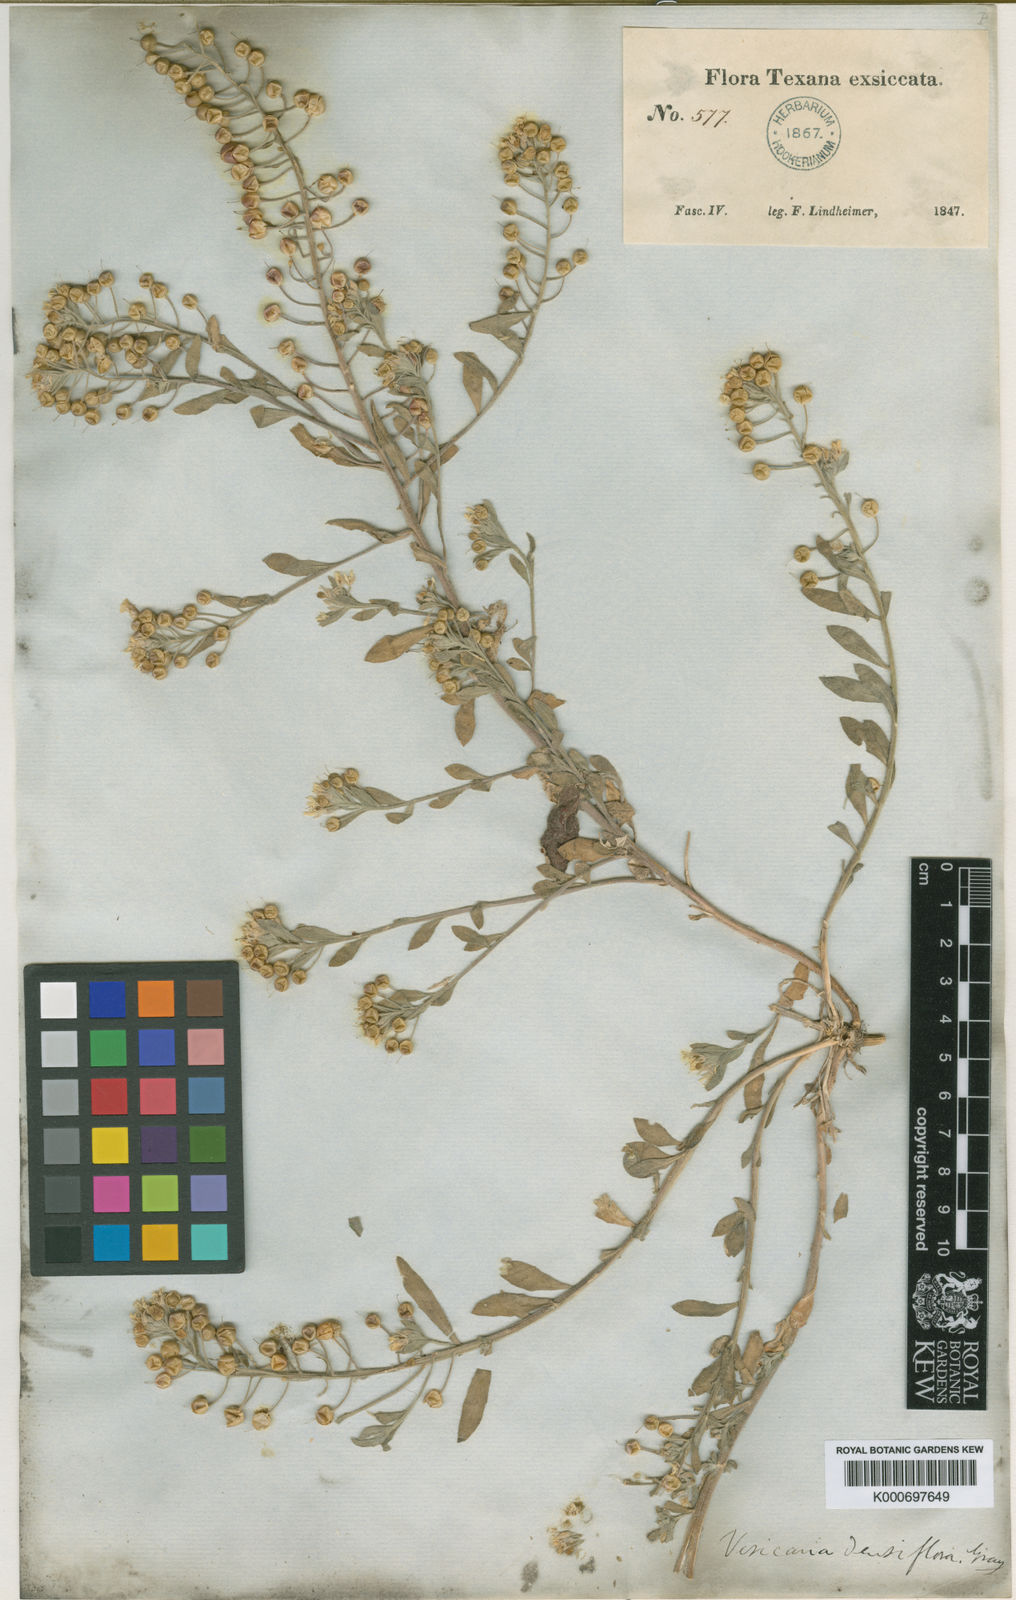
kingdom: Plantae
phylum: Tracheophyta
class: Magnoliopsida
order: Brassicales
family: Brassicaceae
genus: Physaria
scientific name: Physaria densiflora
